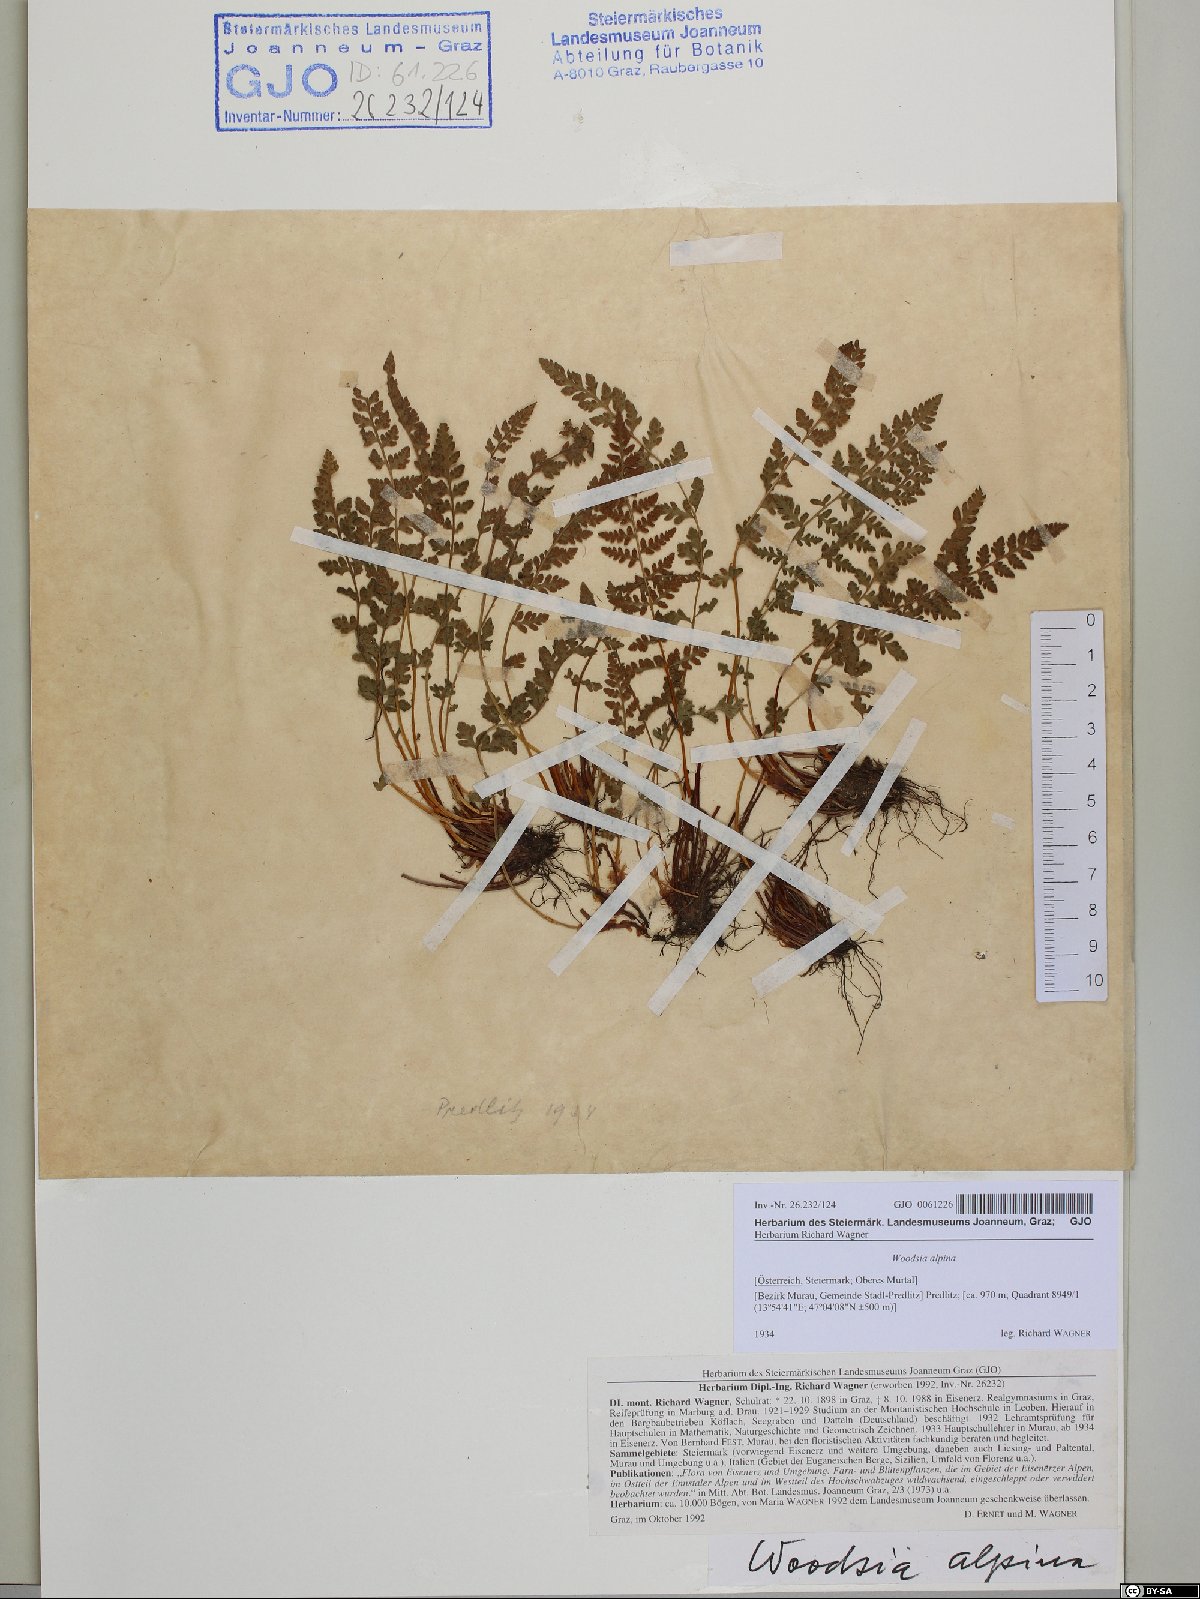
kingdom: Plantae
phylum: Tracheophyta
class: Polypodiopsida
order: Polypodiales
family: Woodsiaceae
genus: Woodsia
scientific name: Woodsia alpina
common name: Alpine woodsia
